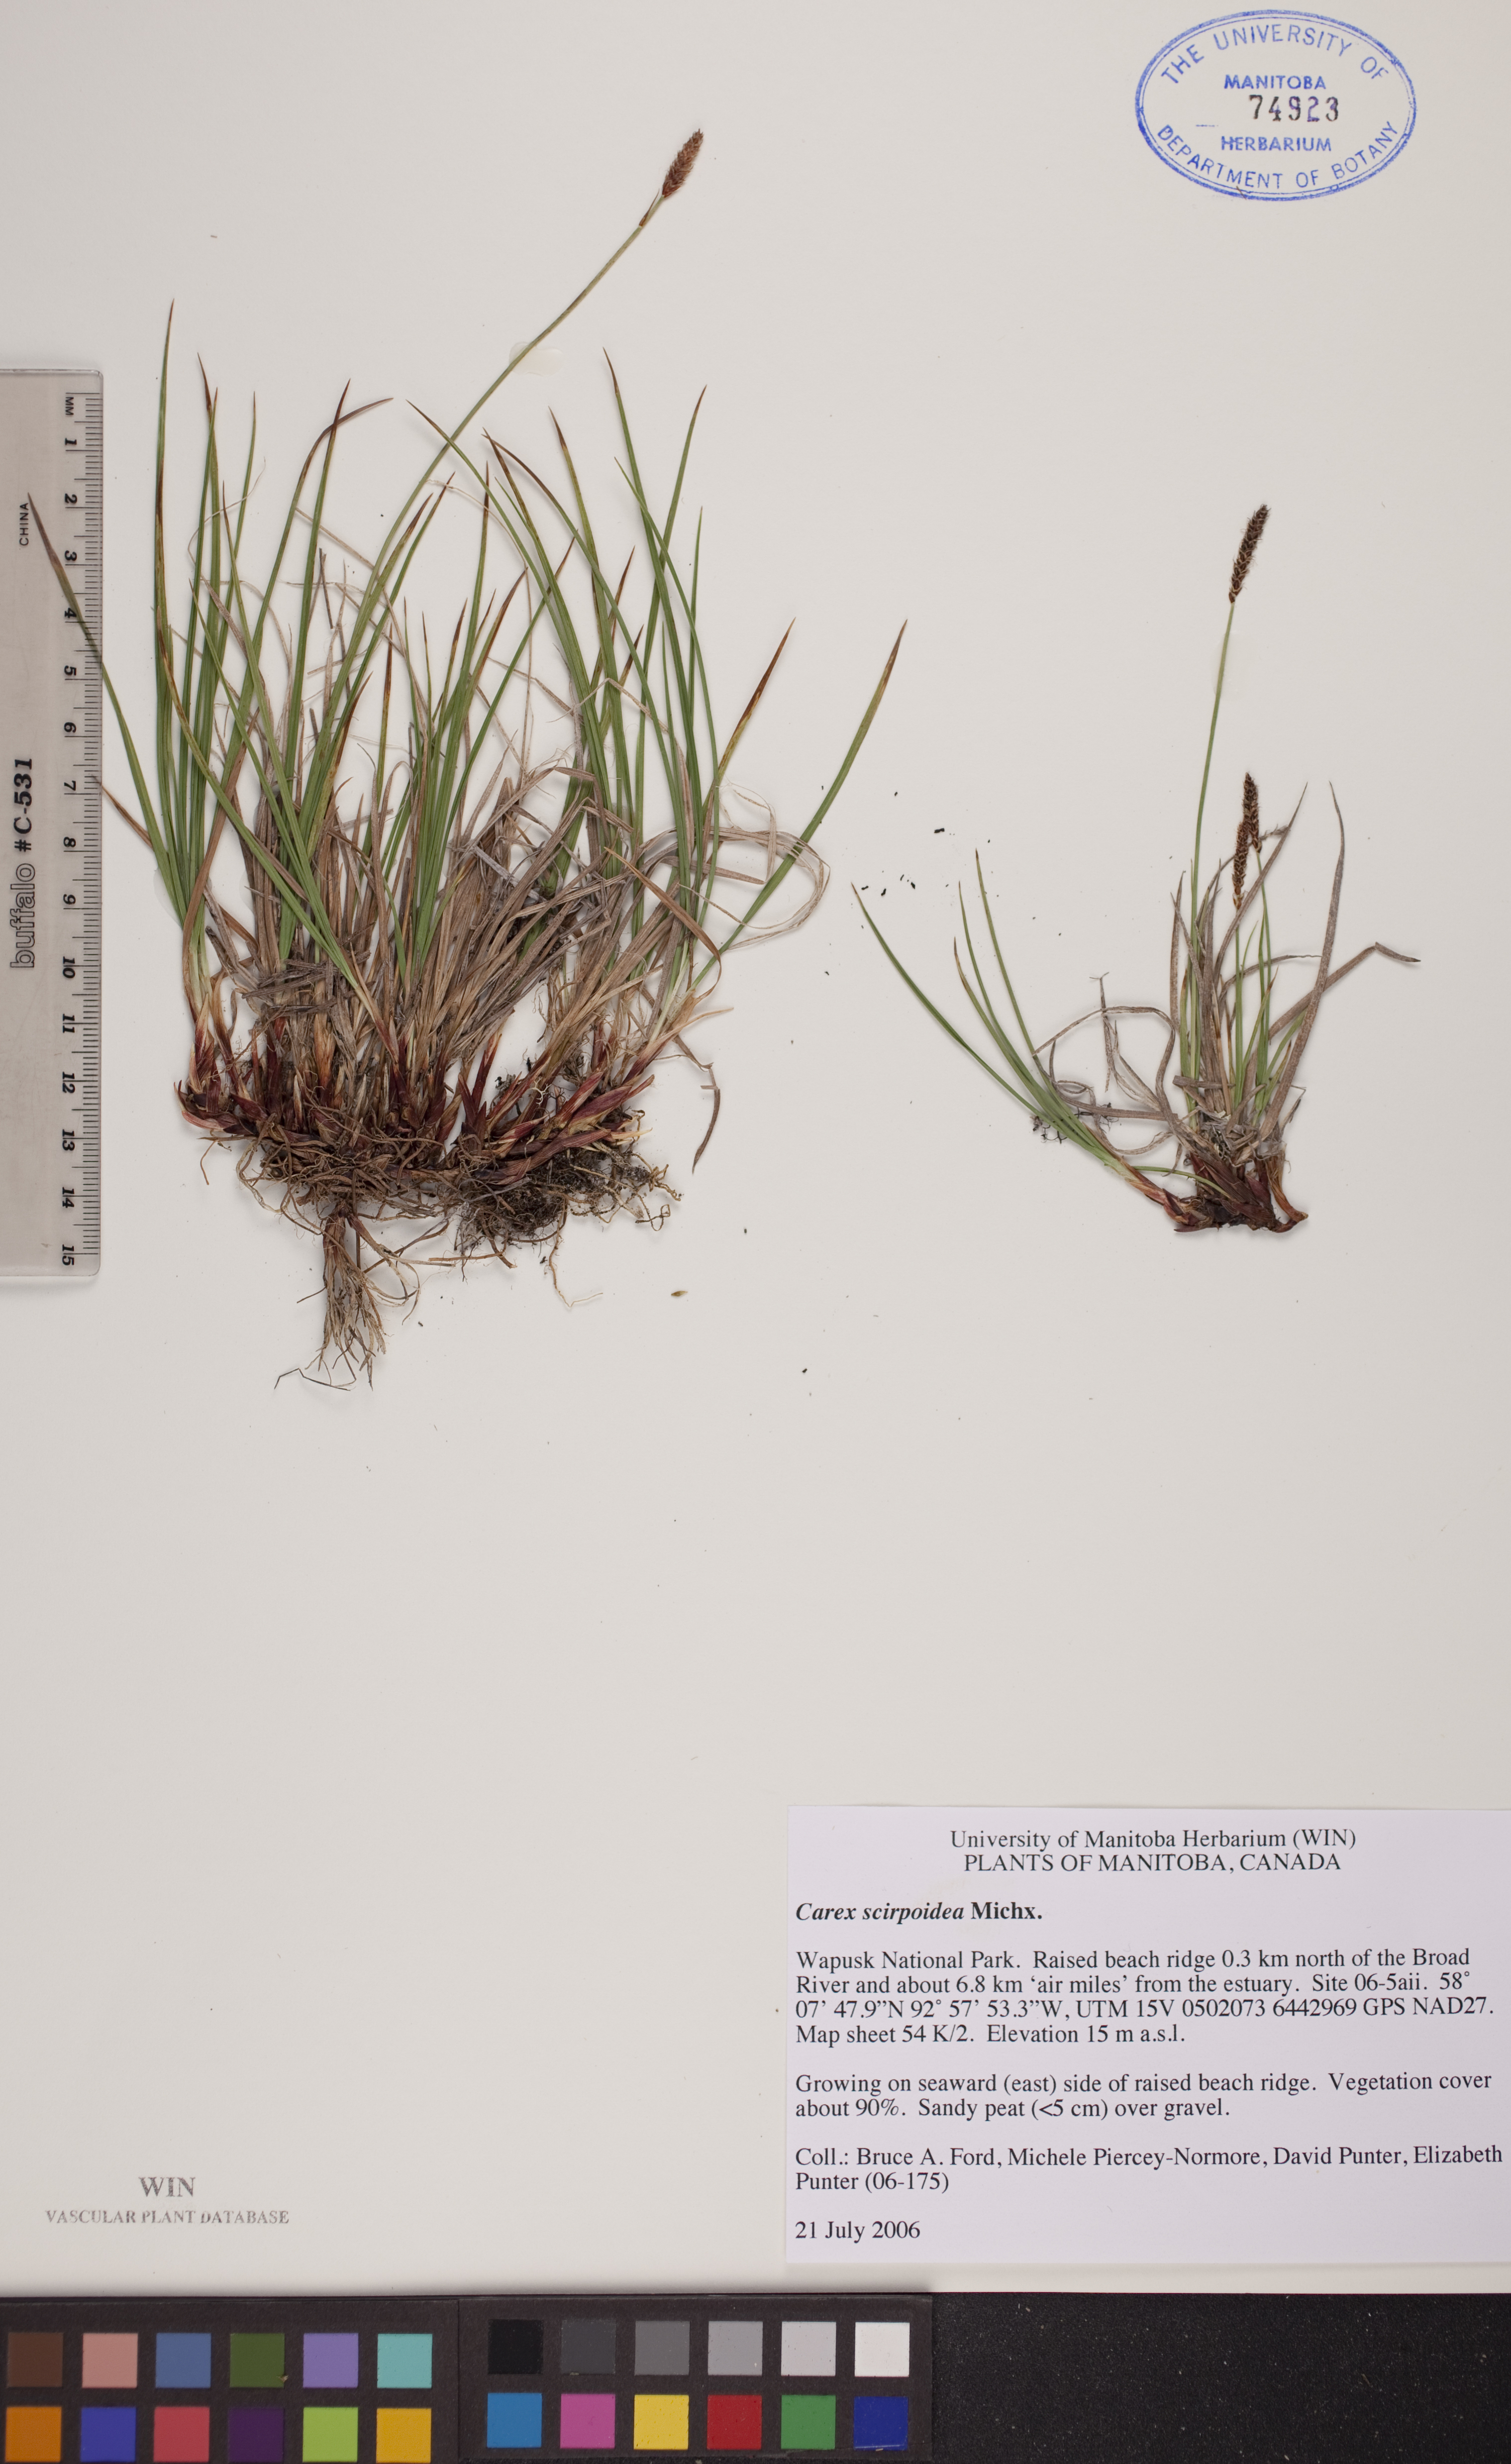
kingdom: Plantae
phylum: Tracheophyta
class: Liliopsida
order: Poales
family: Cyperaceae
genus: Carex
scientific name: Carex scirpoidea
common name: Canada single-spike sedge
